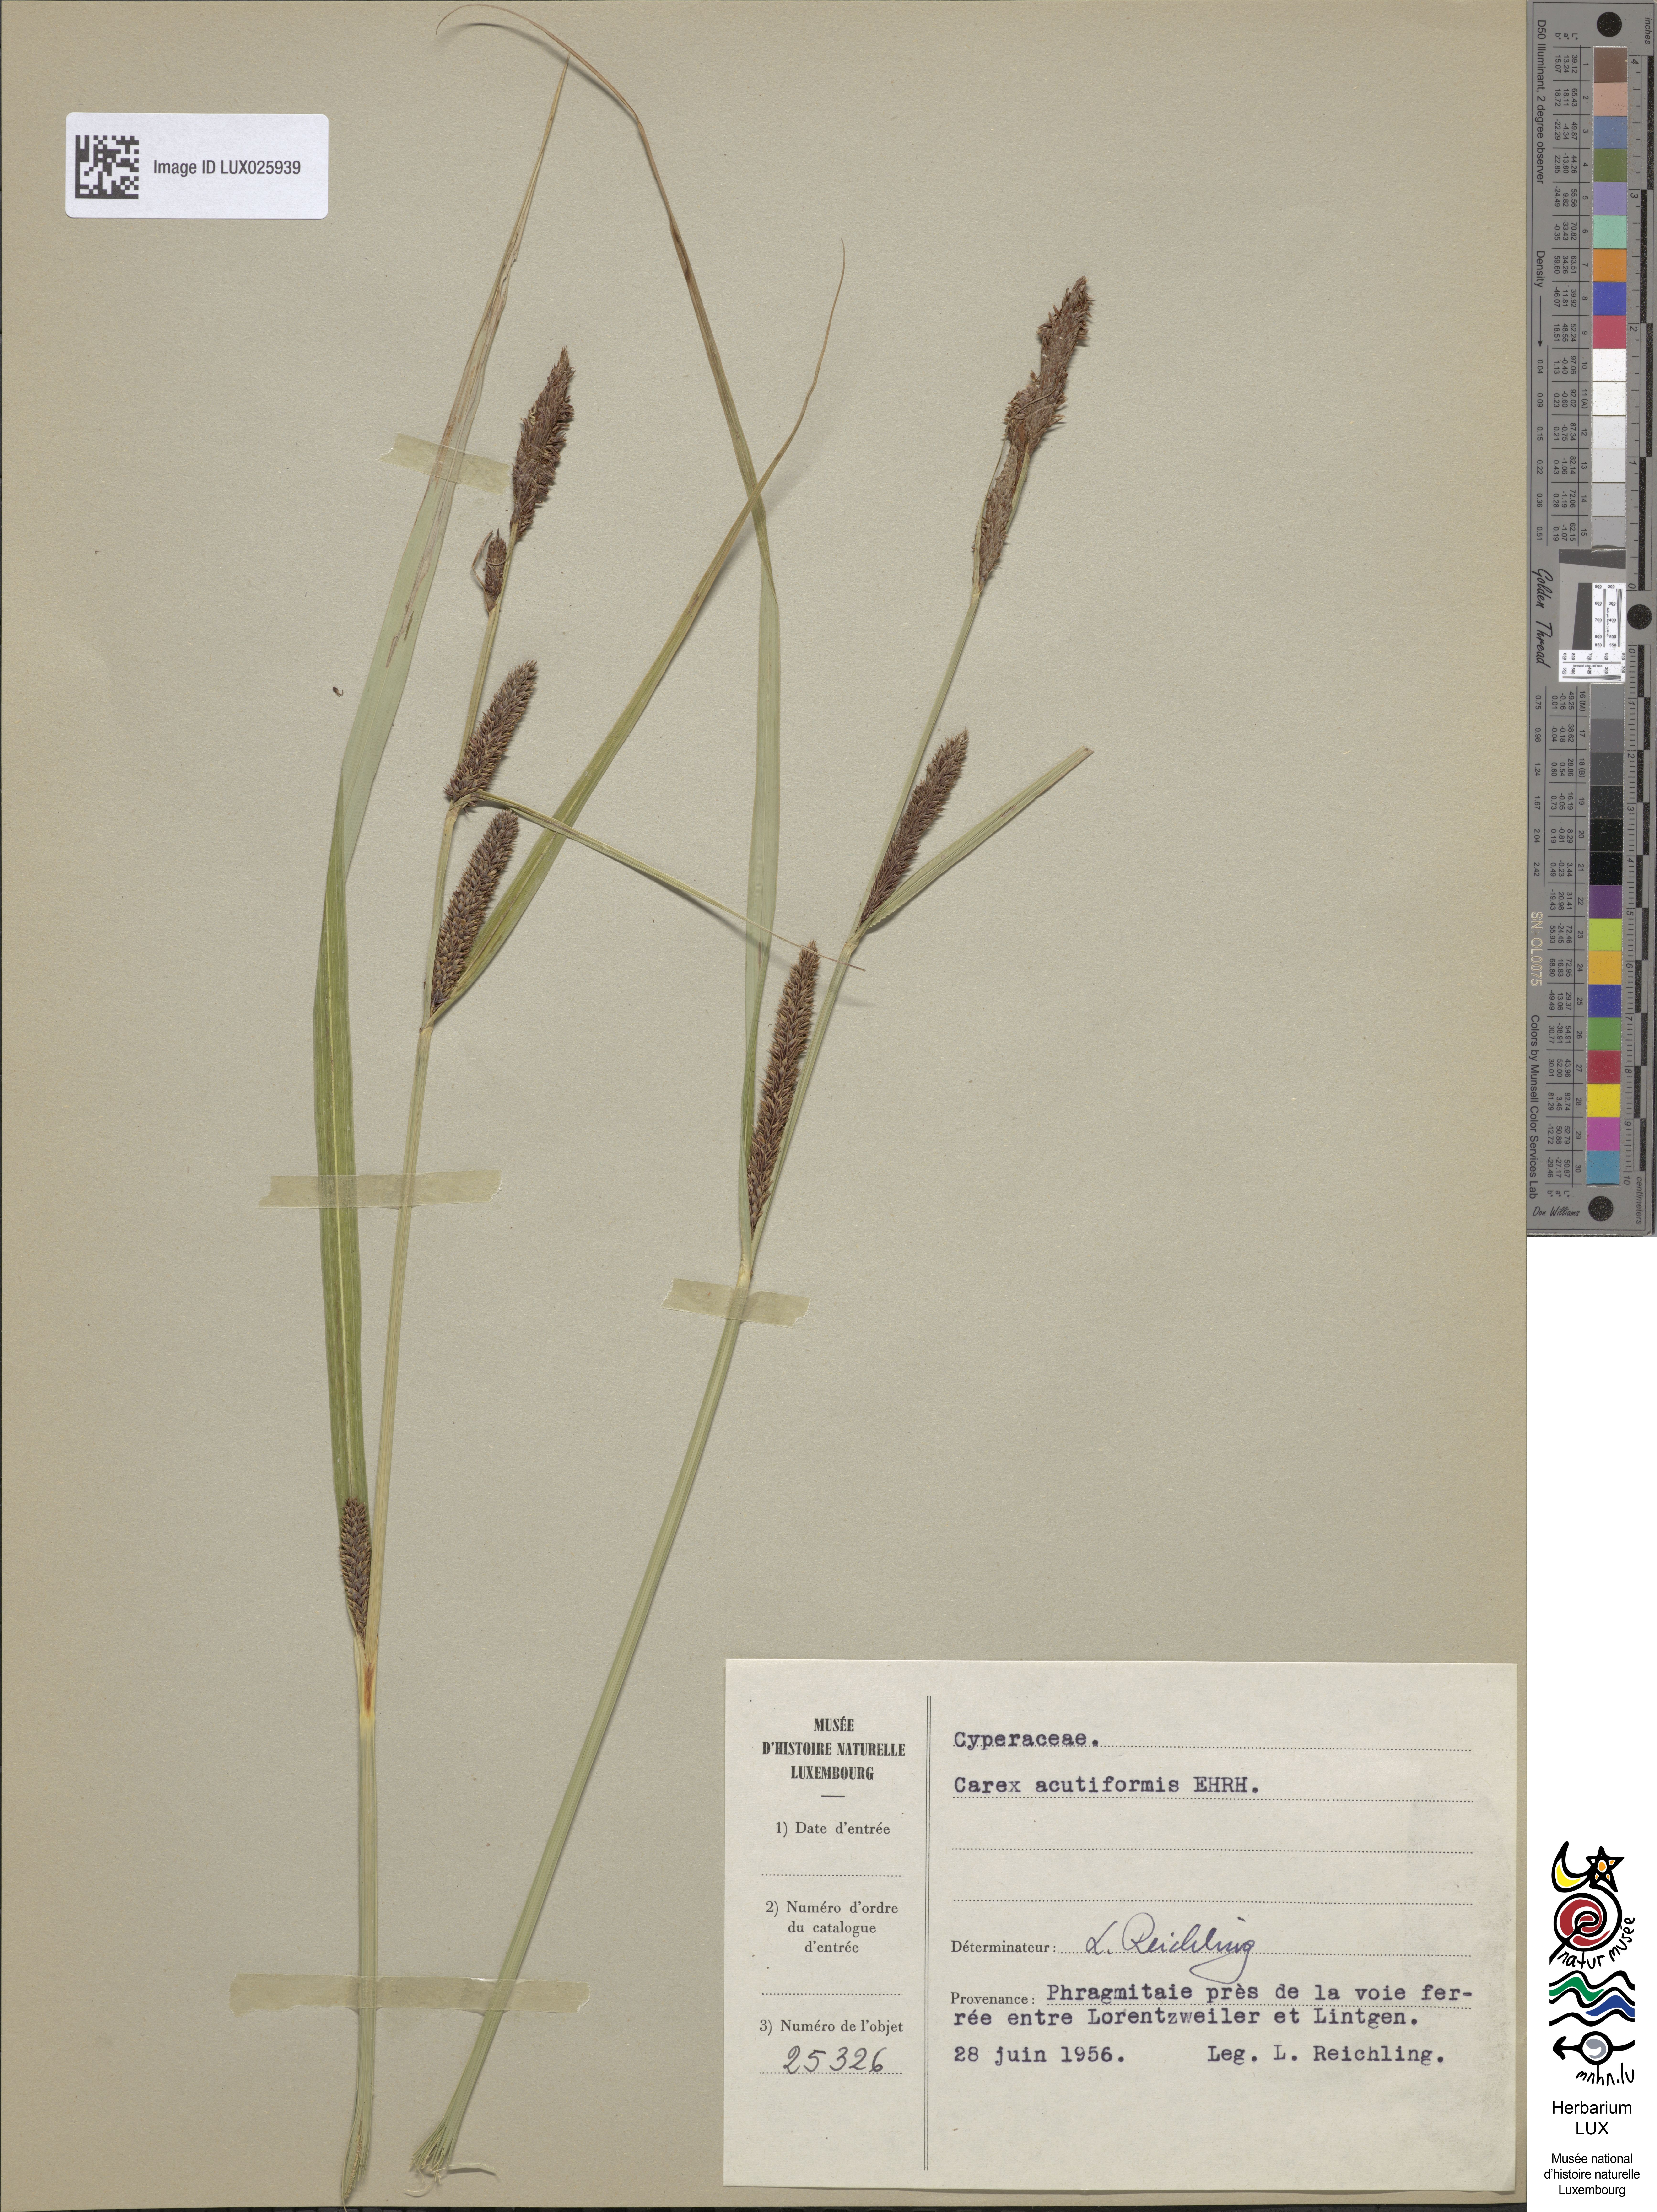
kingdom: Plantae
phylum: Tracheophyta
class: Liliopsida
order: Poales
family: Cyperaceae
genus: Carex
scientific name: Carex acutiformis
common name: Lesser pond-sedge
